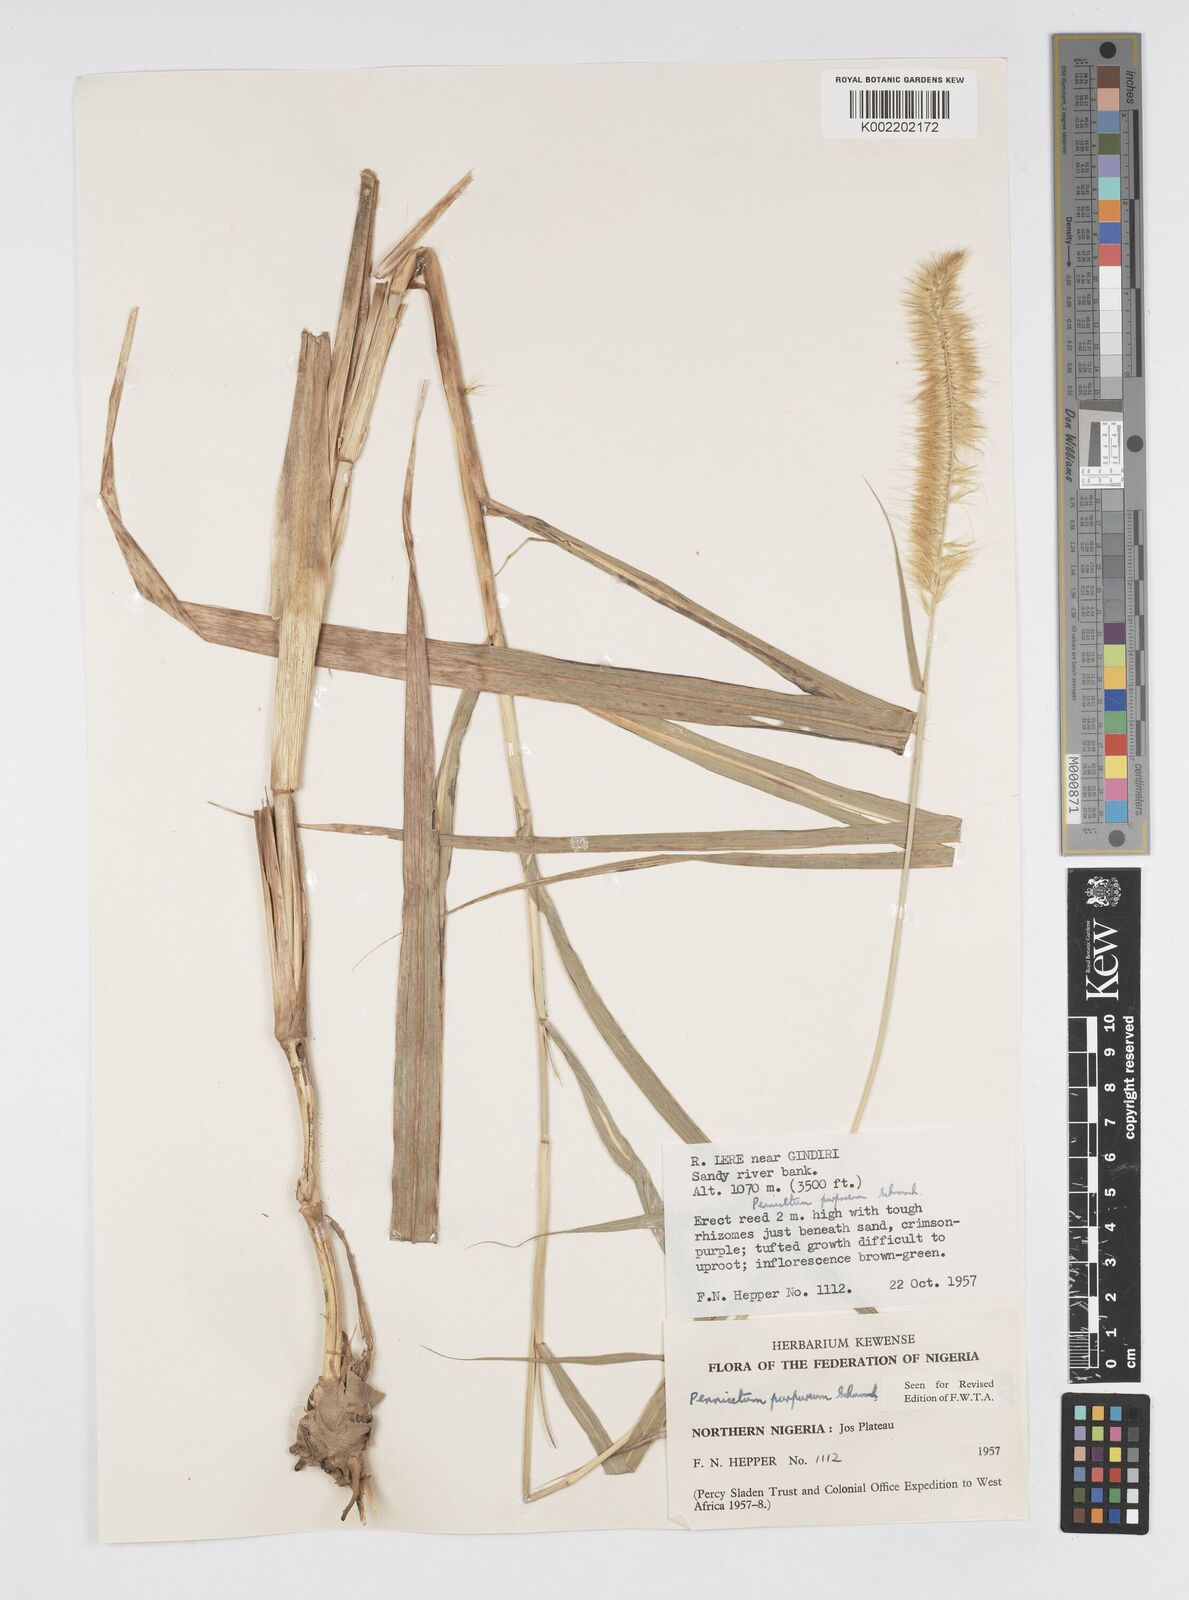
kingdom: Plantae
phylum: Tracheophyta
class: Liliopsida
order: Poales
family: Poaceae
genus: Cenchrus
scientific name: Cenchrus purpureus
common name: Elephant grass
